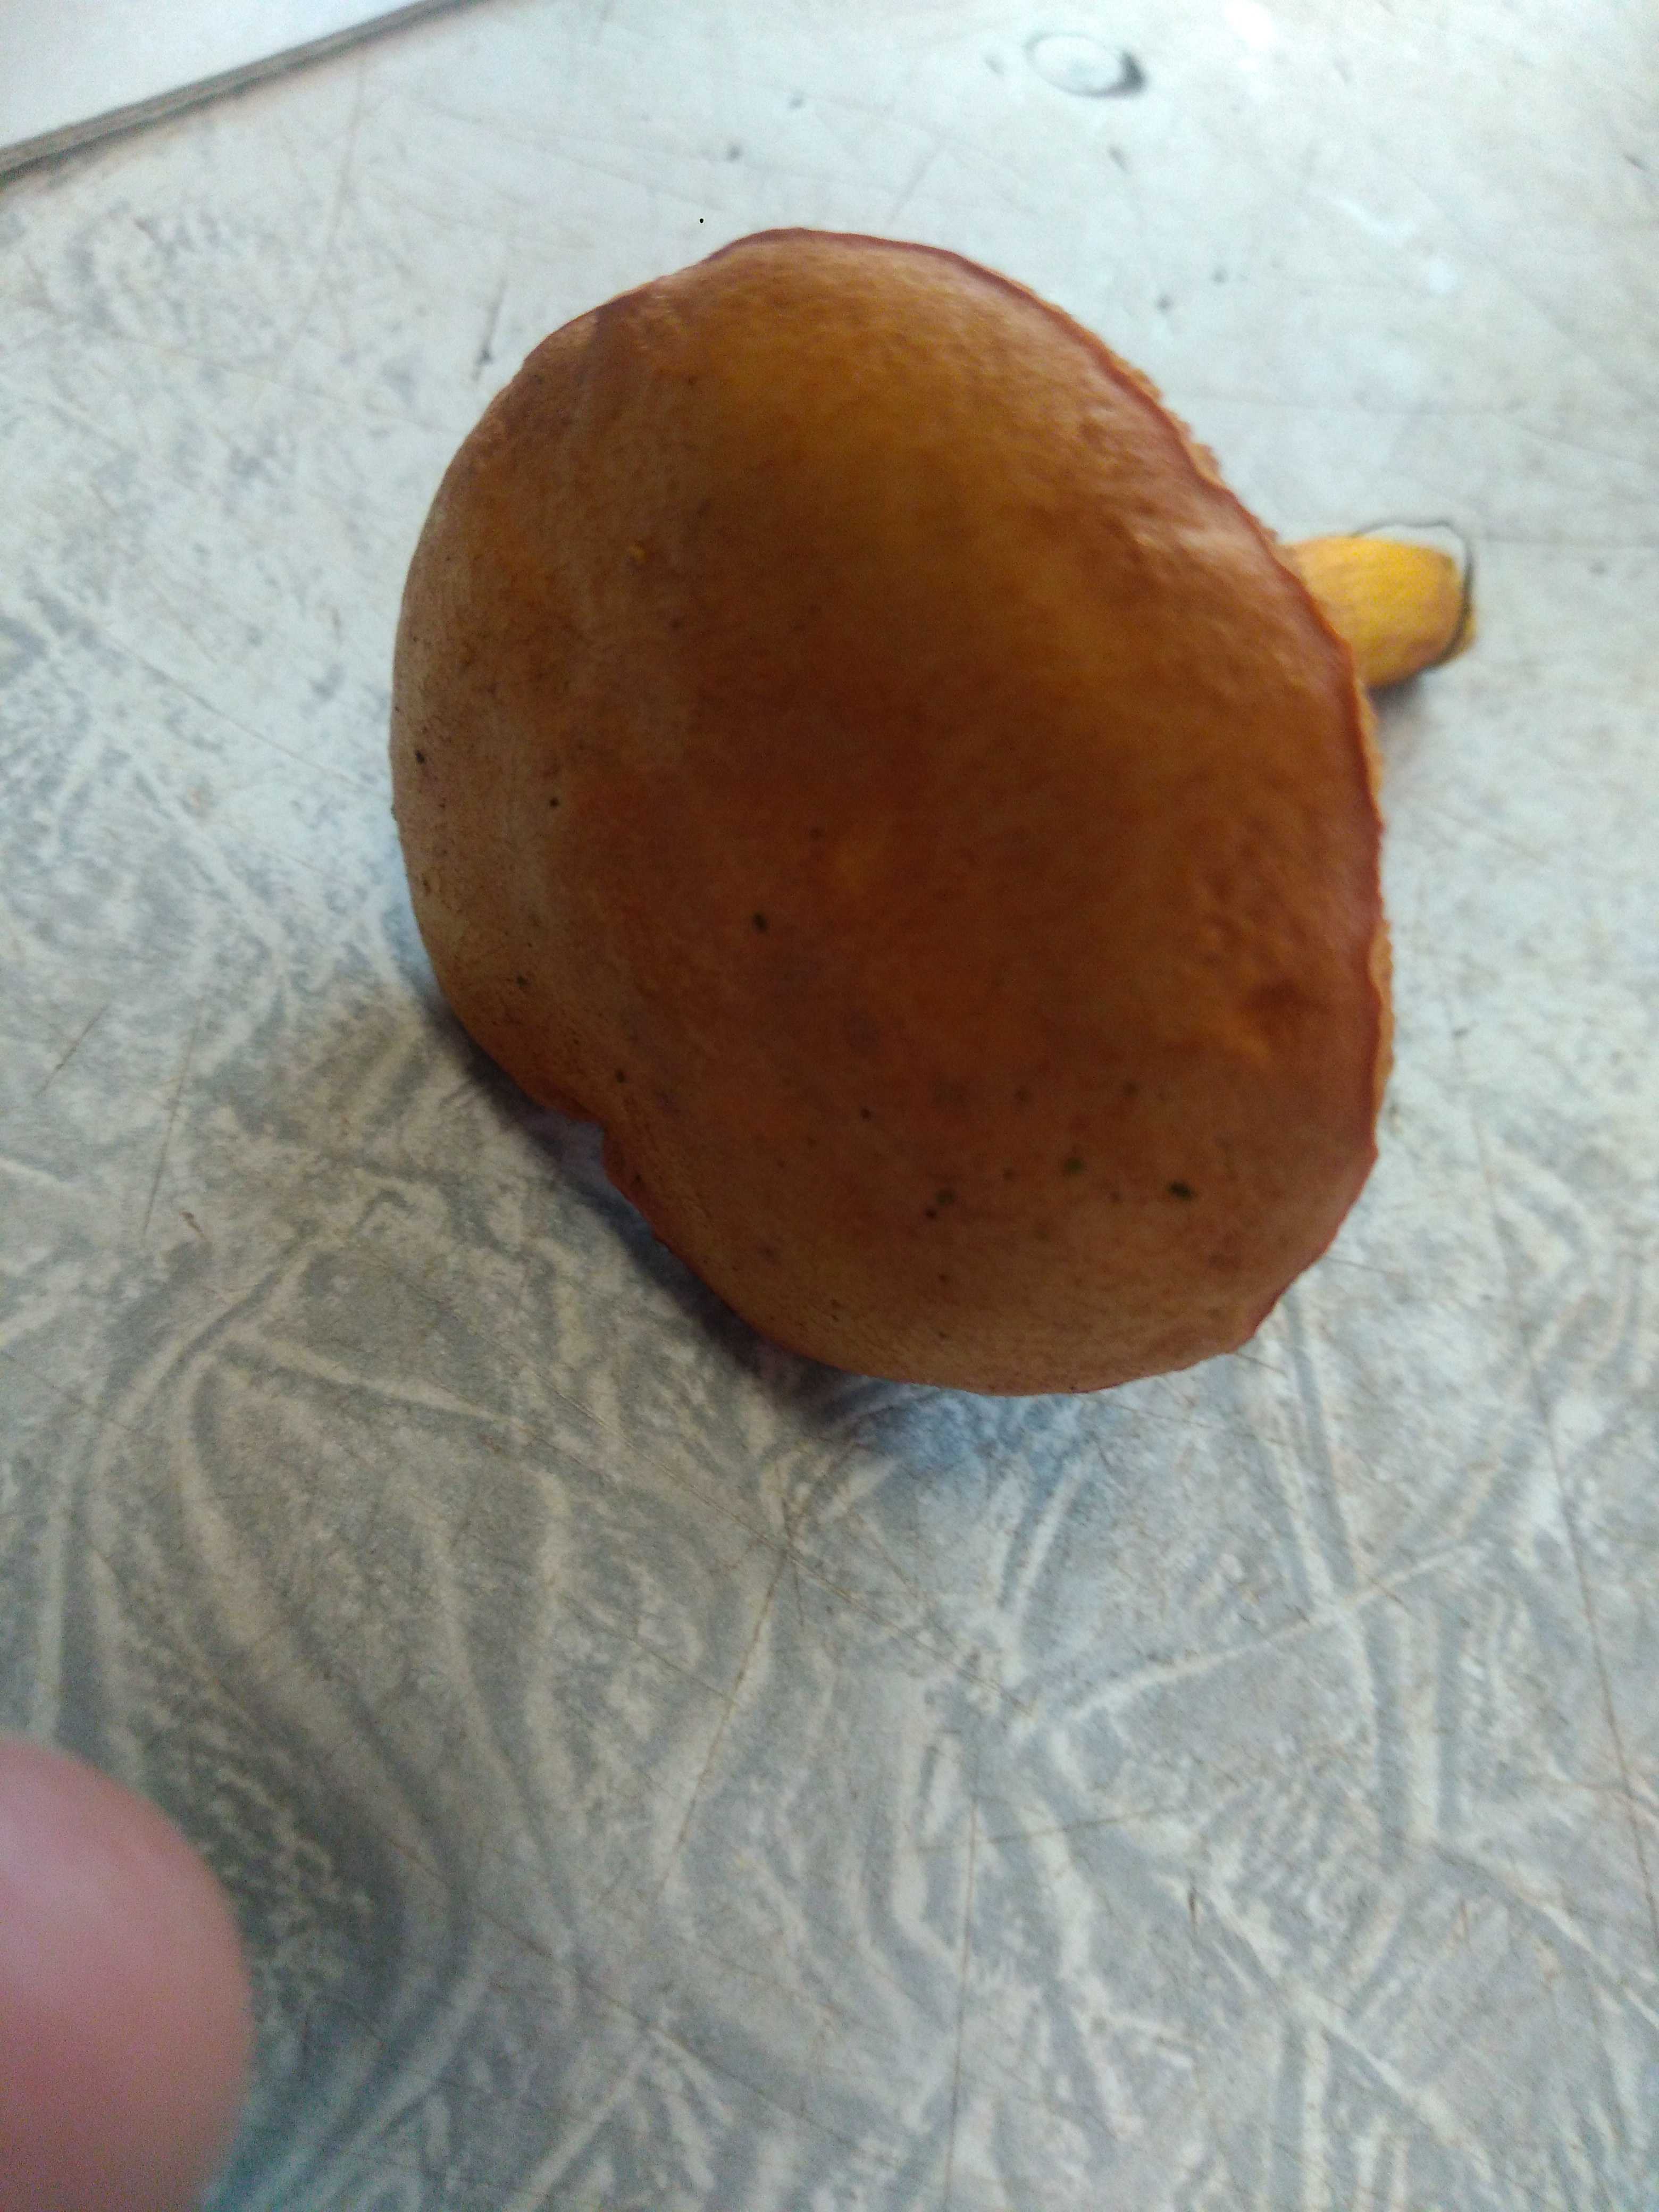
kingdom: Fungi
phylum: Basidiomycota
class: Agaricomycetes
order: Boletales
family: Boletaceae
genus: Chalciporus
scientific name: Chalciporus piperatus
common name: peberrørhat
